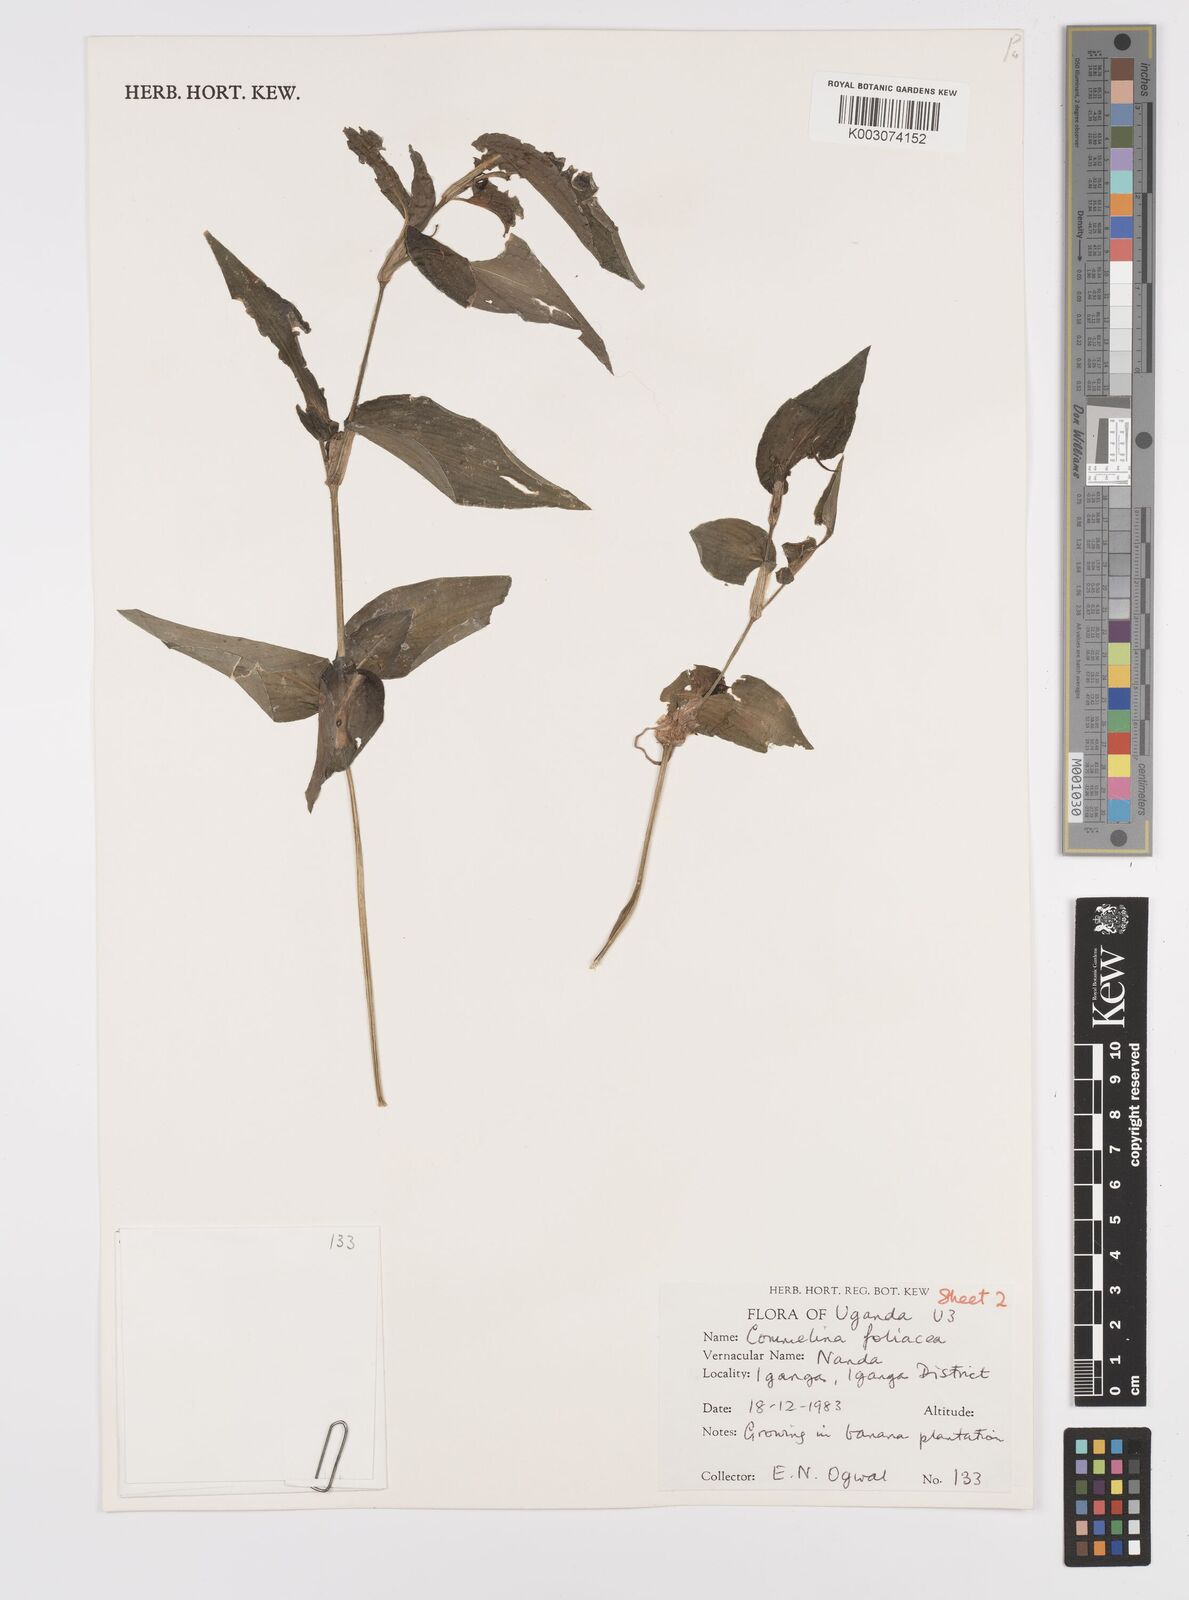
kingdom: Plantae
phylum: Tracheophyta
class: Liliopsida
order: Commelinales
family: Commelinaceae
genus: Commelina
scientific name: Commelina foliacea
